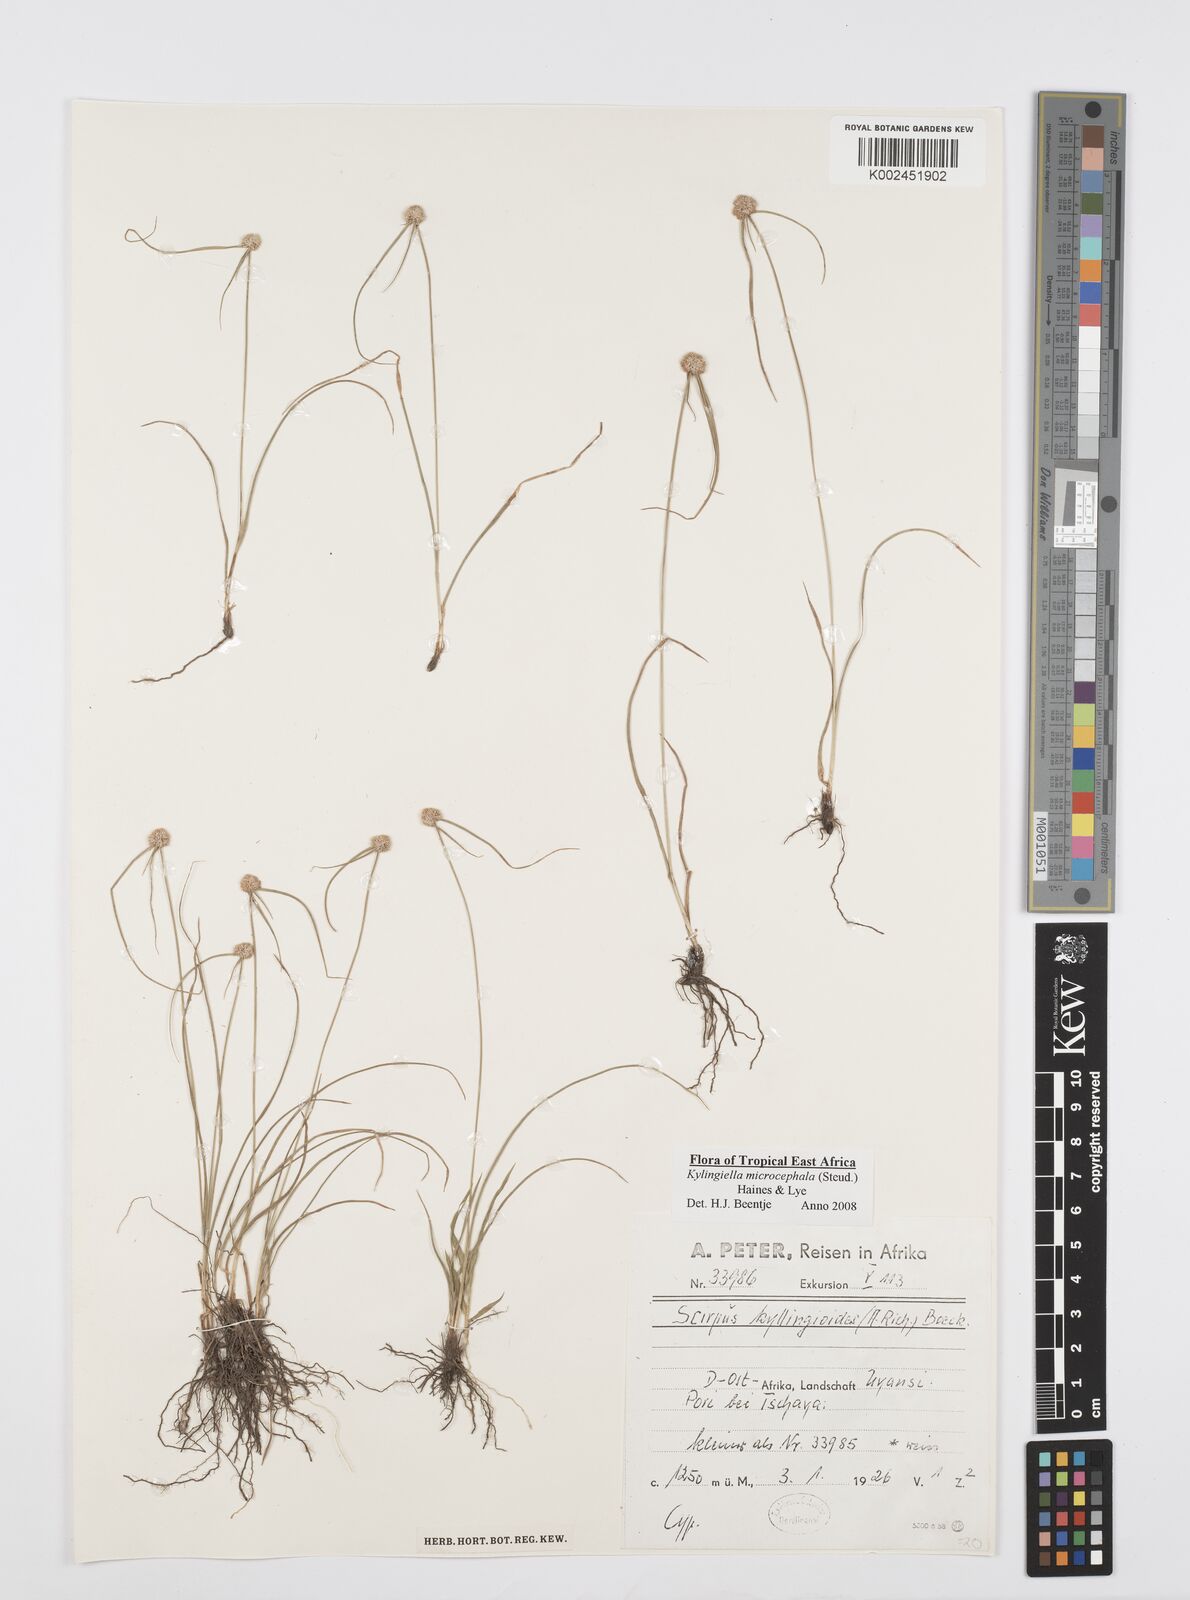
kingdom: Plantae
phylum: Tracheophyta
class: Liliopsida
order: Poales
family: Cyperaceae
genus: Cyperus
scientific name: Cyperus microcephalus
